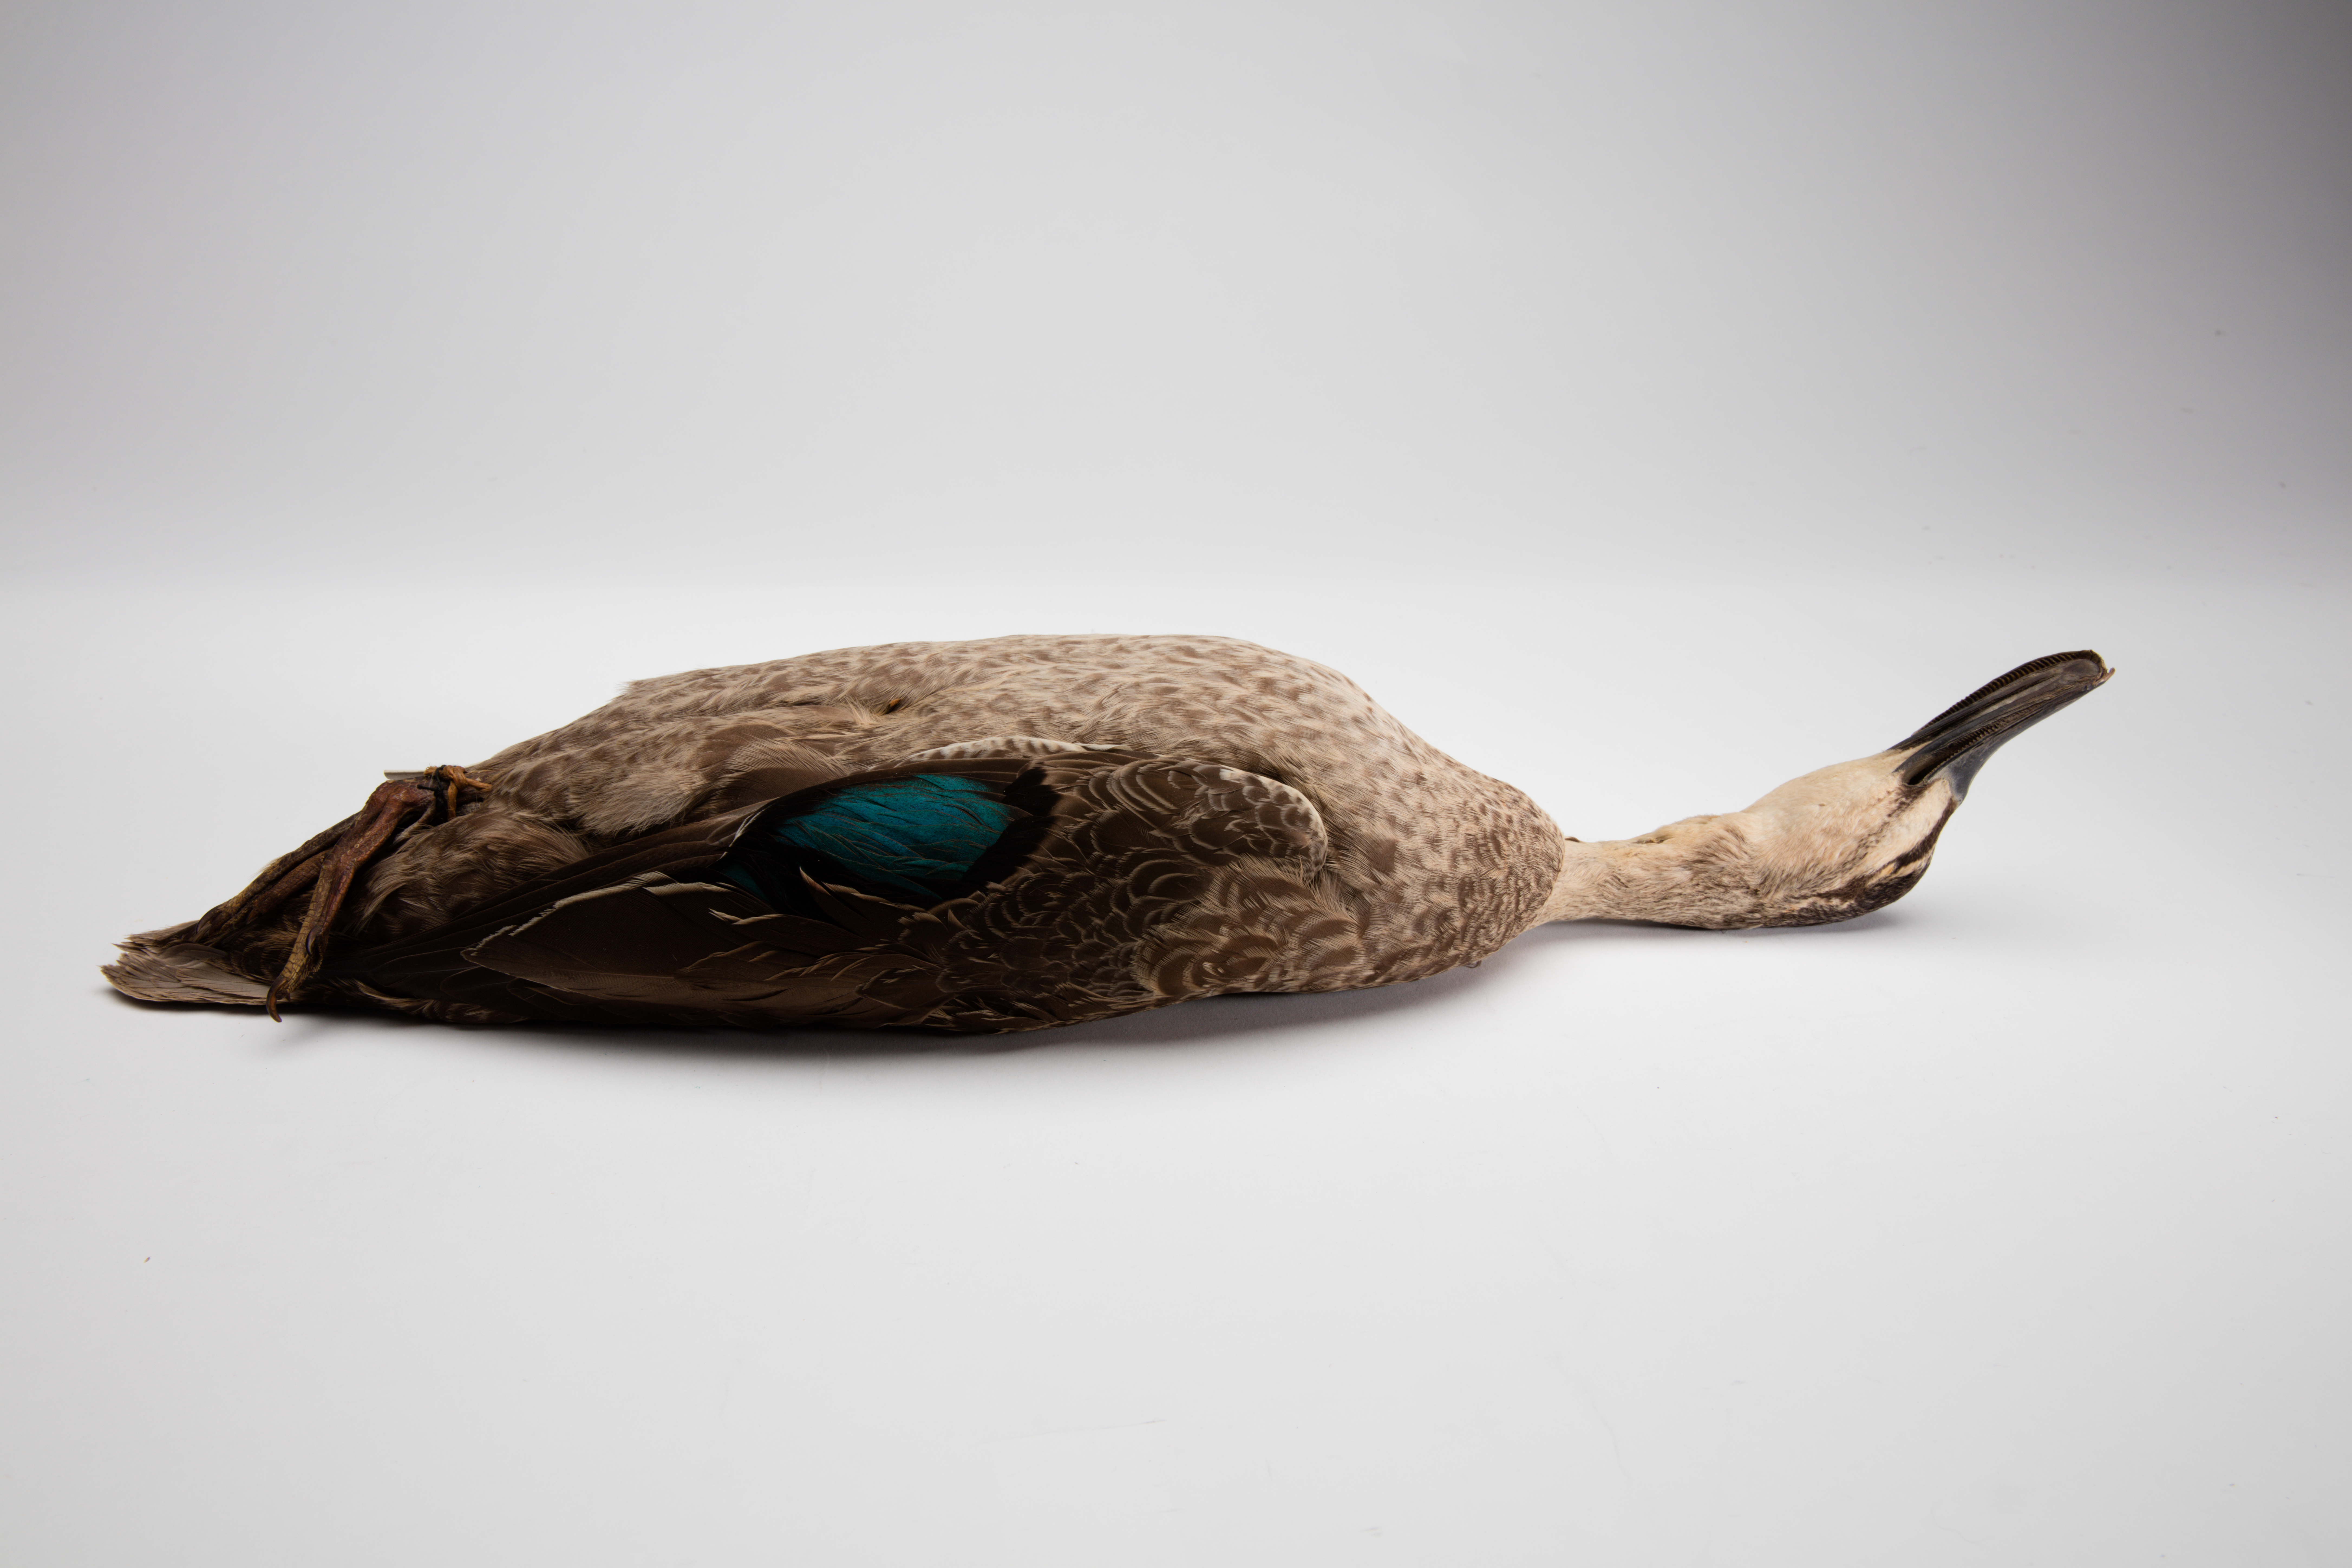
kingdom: Animalia
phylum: Chordata
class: Aves
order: Anseriformes
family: Anatidae
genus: Anas
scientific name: Anas superciliosa
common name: Pacific black duck
